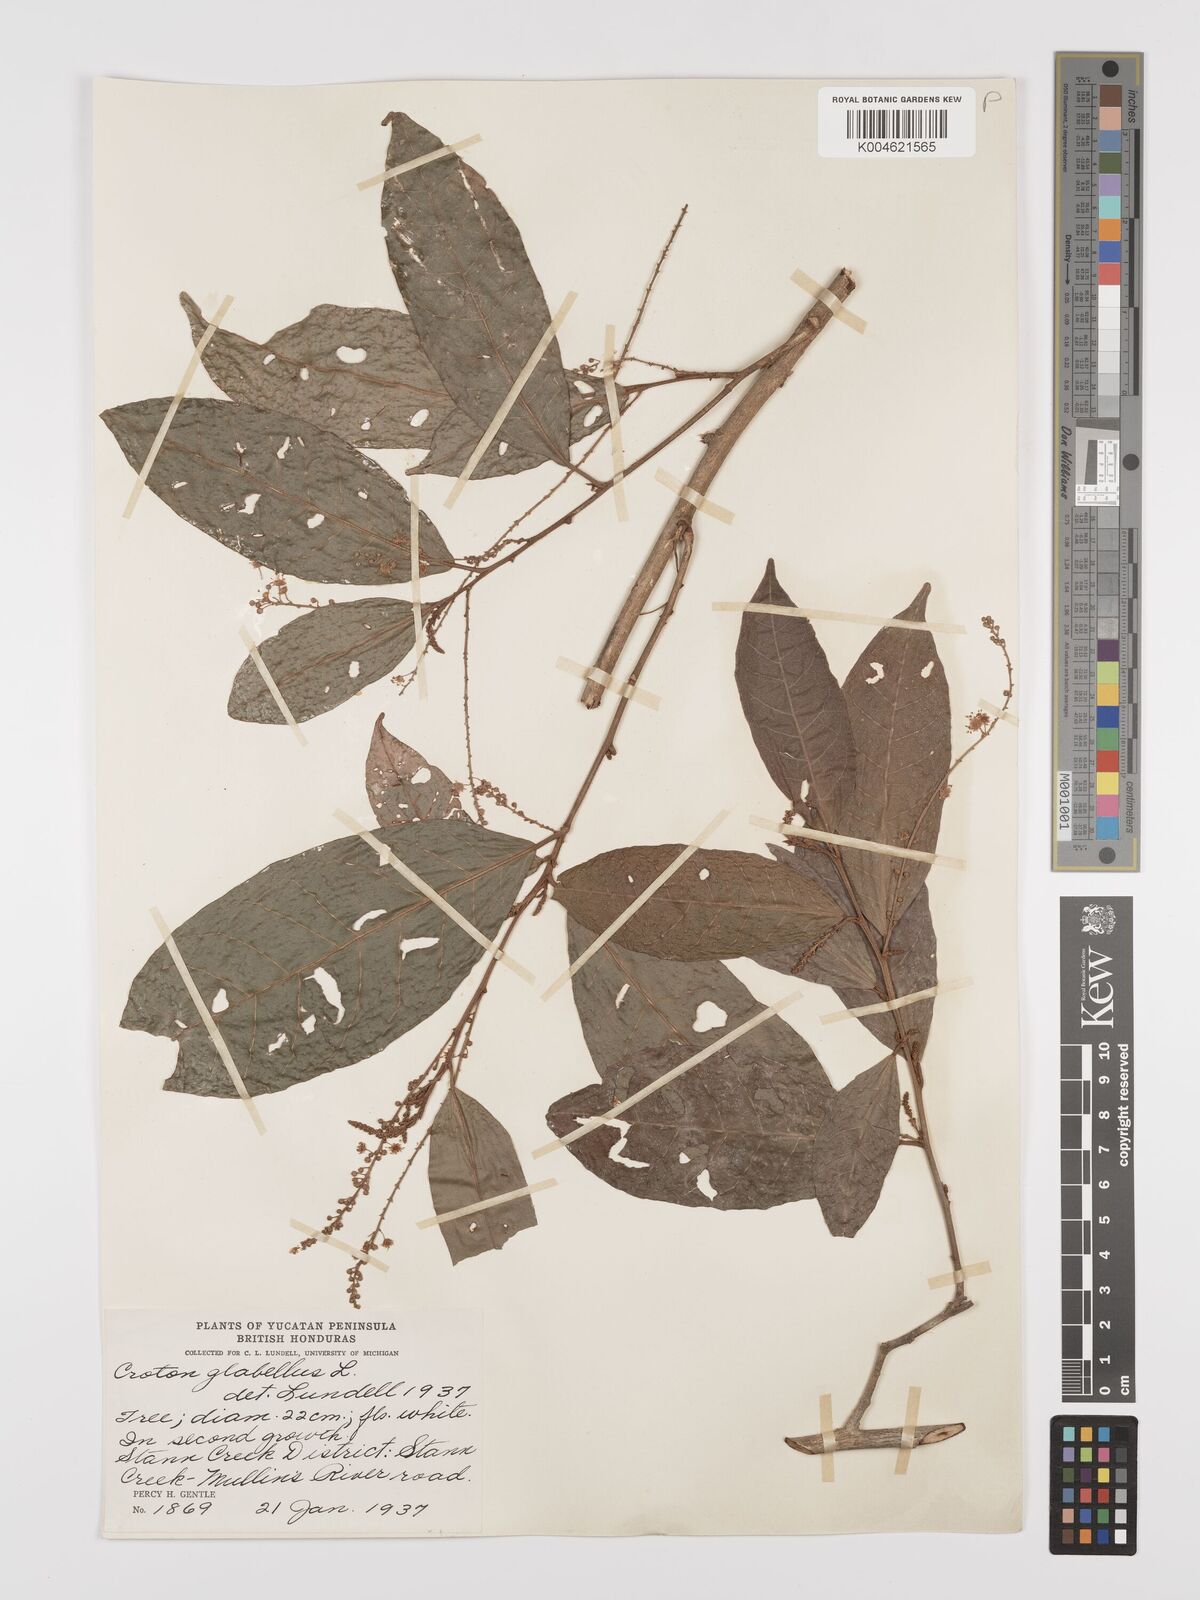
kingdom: Plantae
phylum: Tracheophyta
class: Magnoliopsida
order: Malpighiales
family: Euphorbiaceae
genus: Croton
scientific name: Croton glabellus
